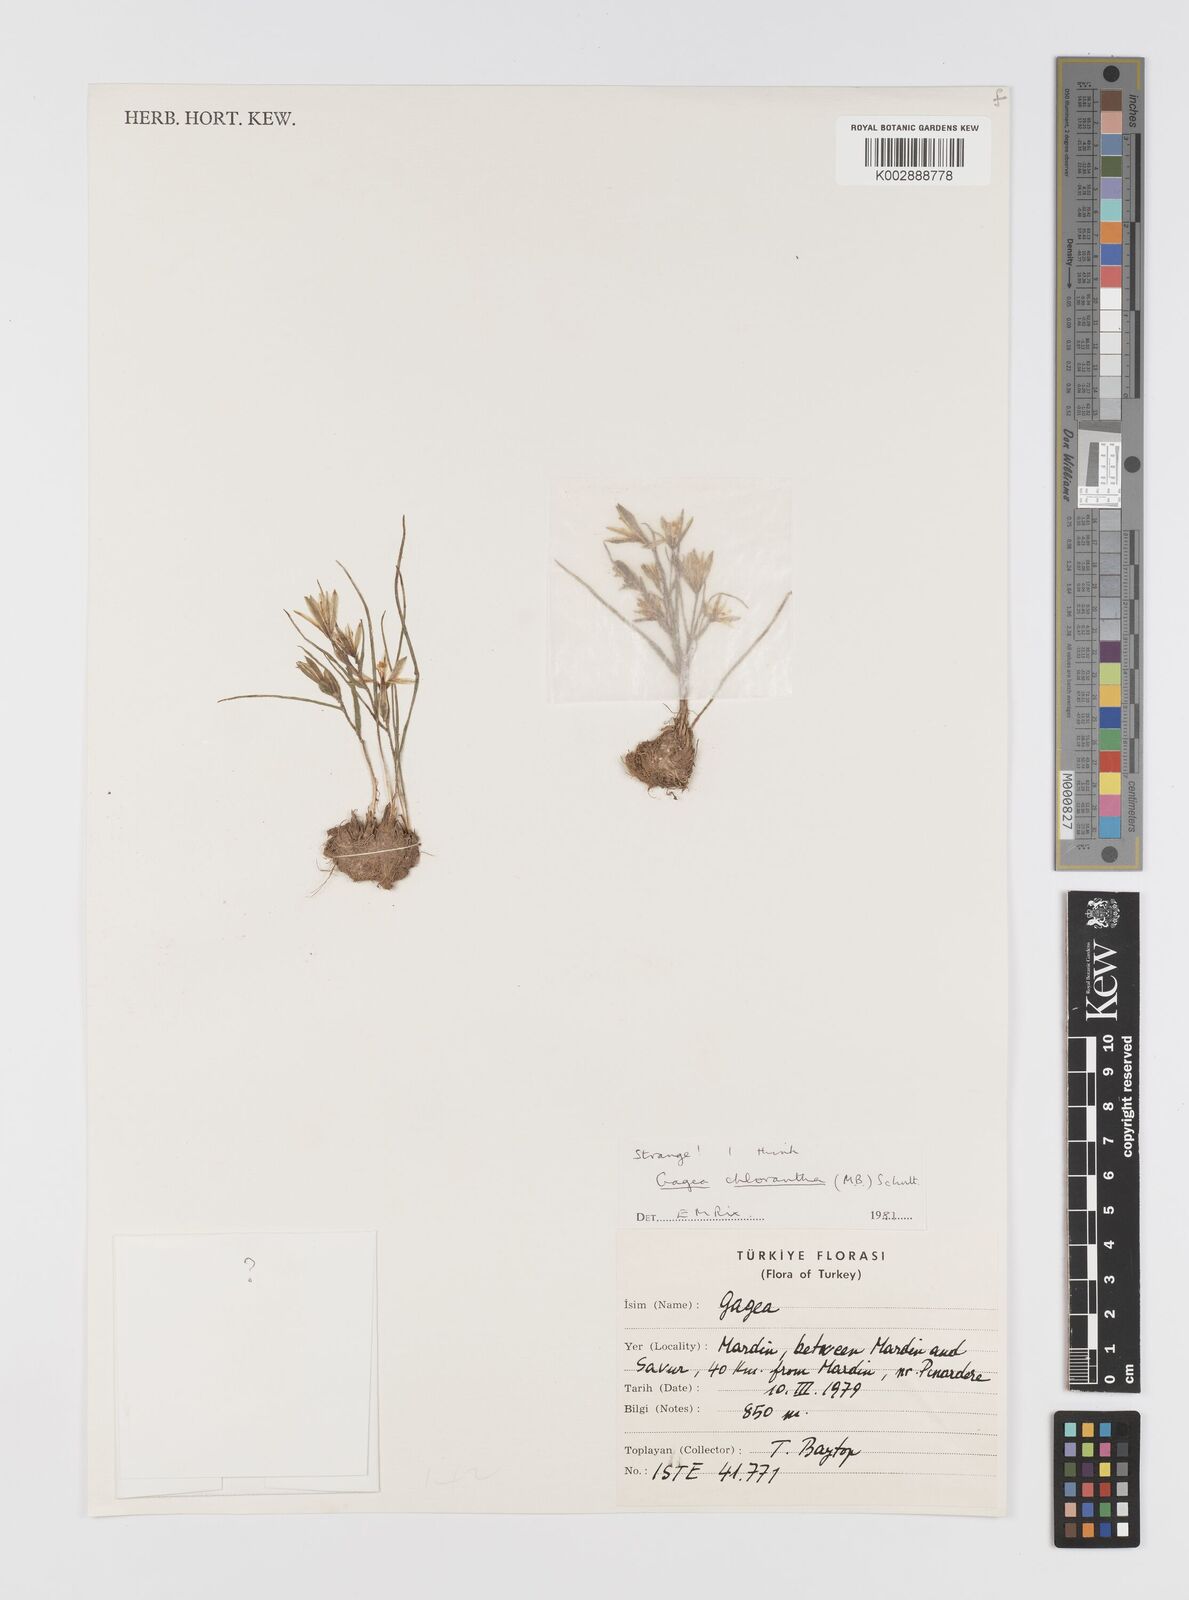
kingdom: Plantae
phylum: Tracheophyta
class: Liliopsida
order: Liliales
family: Liliaceae
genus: Gagea
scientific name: Gagea
